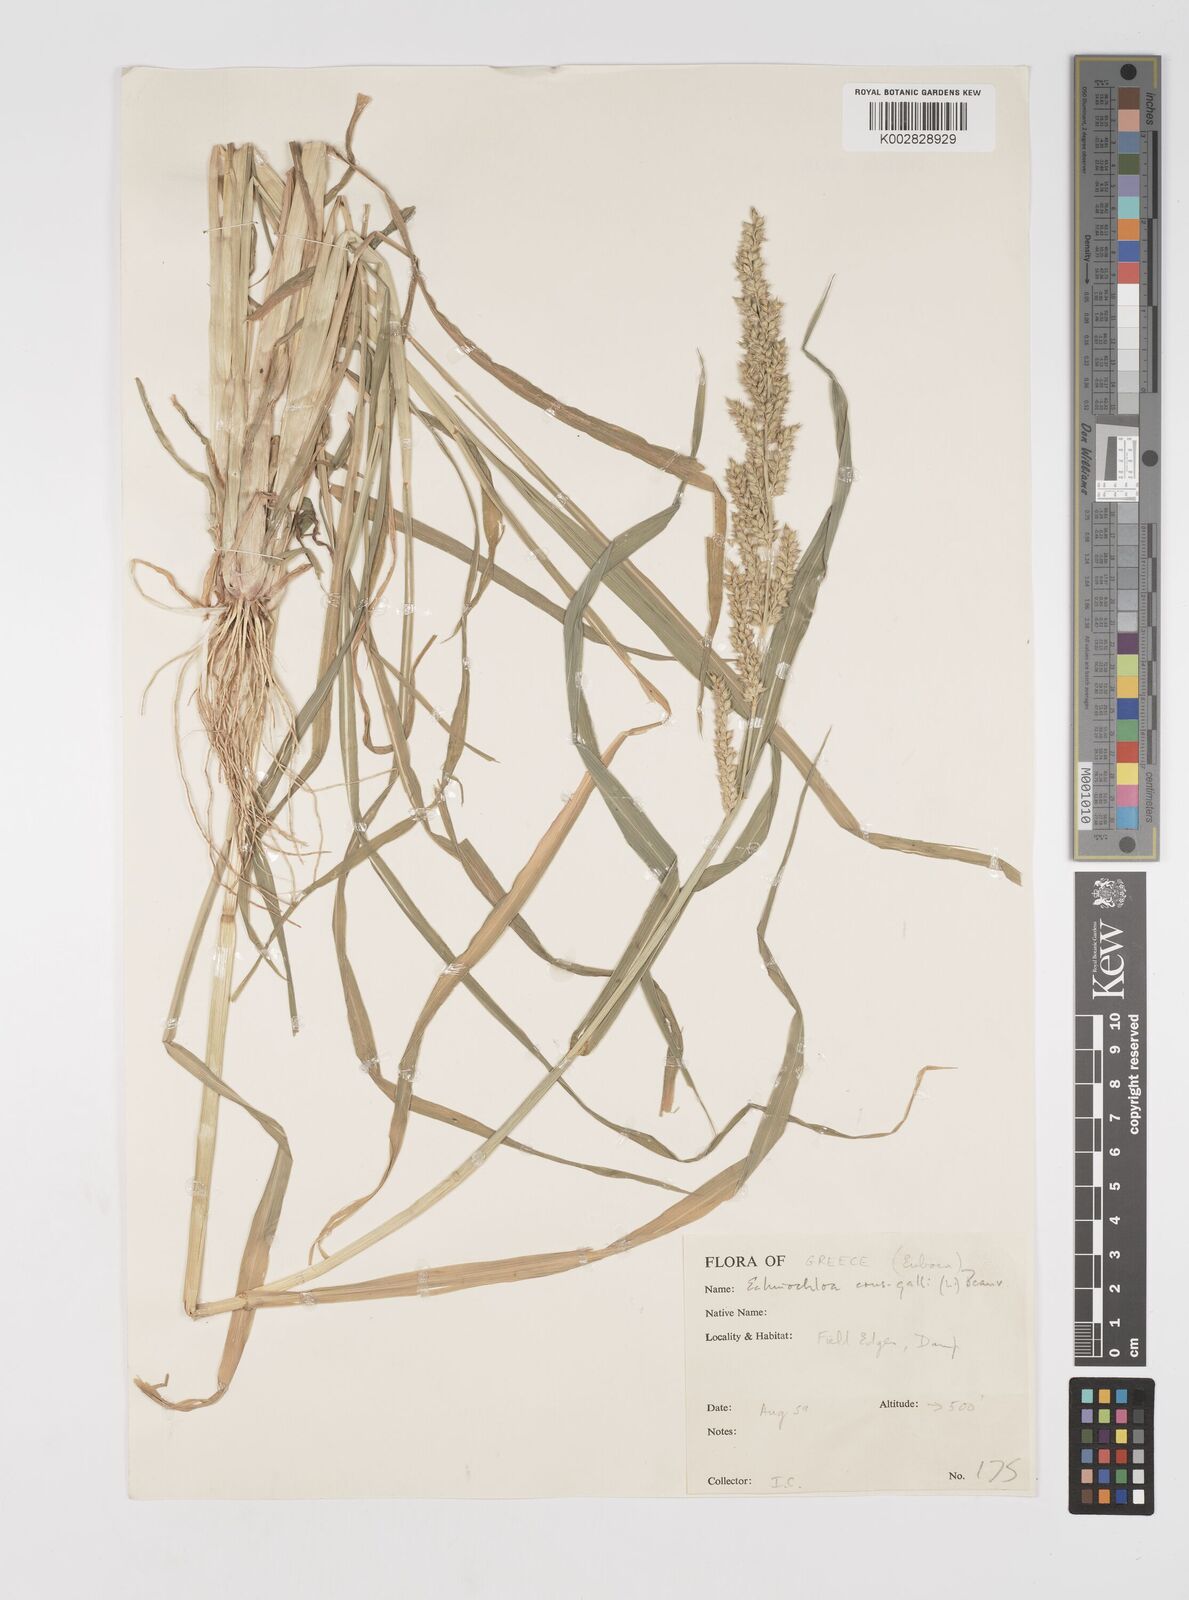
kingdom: Plantae
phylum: Tracheophyta
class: Liliopsida
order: Poales
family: Poaceae
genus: Echinochloa
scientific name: Echinochloa crus-galli
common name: Cockspur
